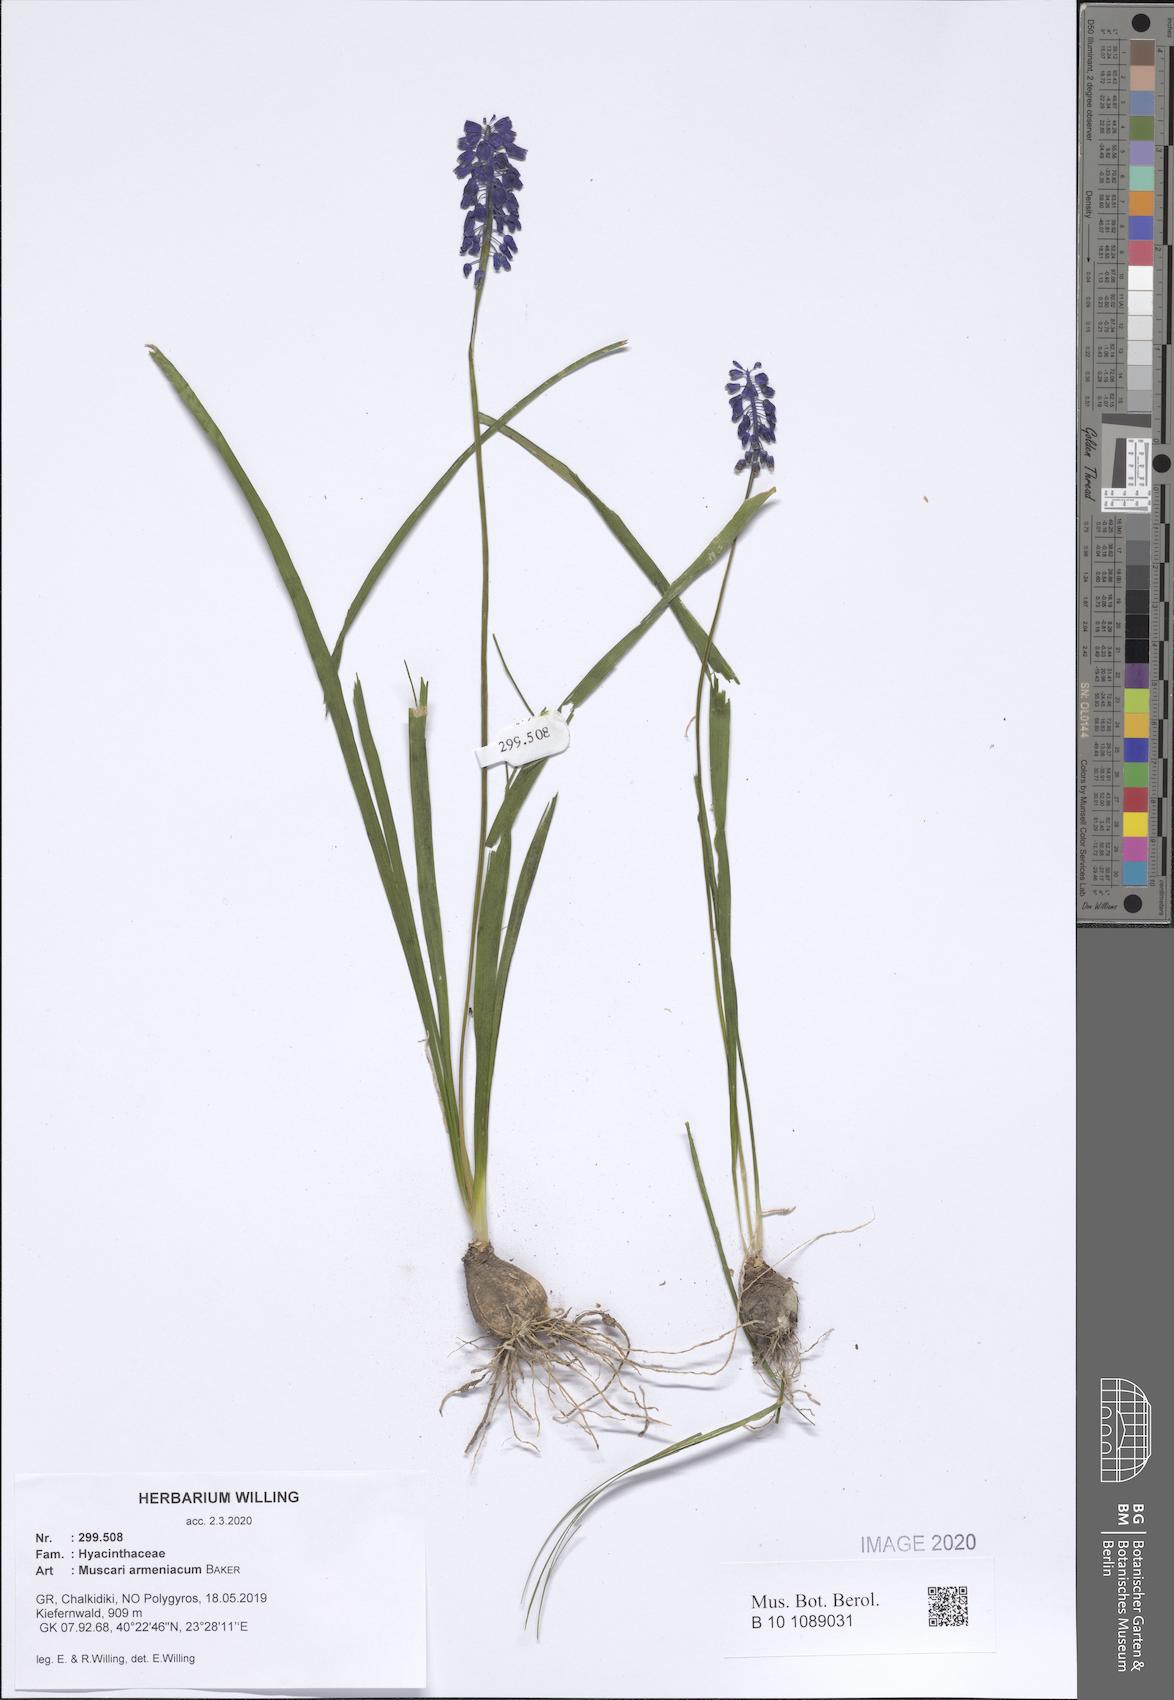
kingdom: Plantae
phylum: Tracheophyta
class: Liliopsida
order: Asparagales
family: Asparagaceae
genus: Muscari
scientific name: Muscari armeniacum
